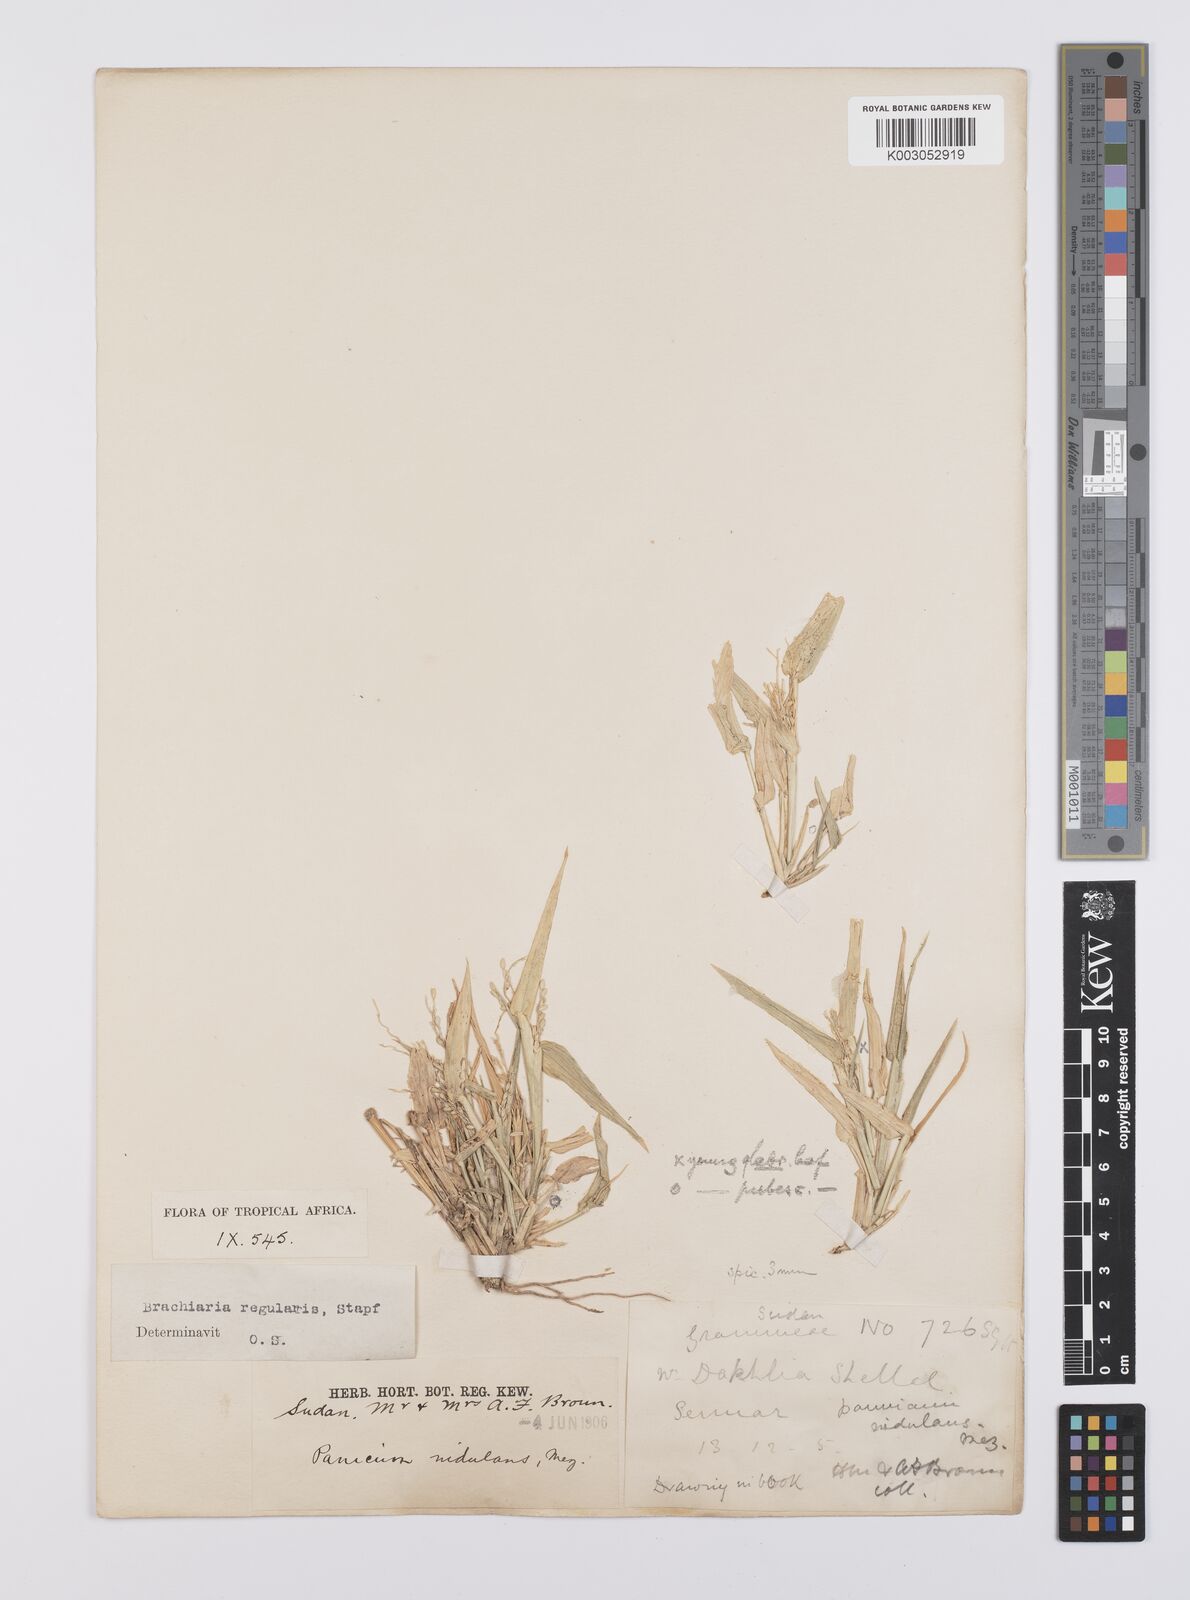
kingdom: Plantae
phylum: Tracheophyta
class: Liliopsida
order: Poales
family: Poaceae
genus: Urochloa
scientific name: Urochloa ramosa
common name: Browntop millet
